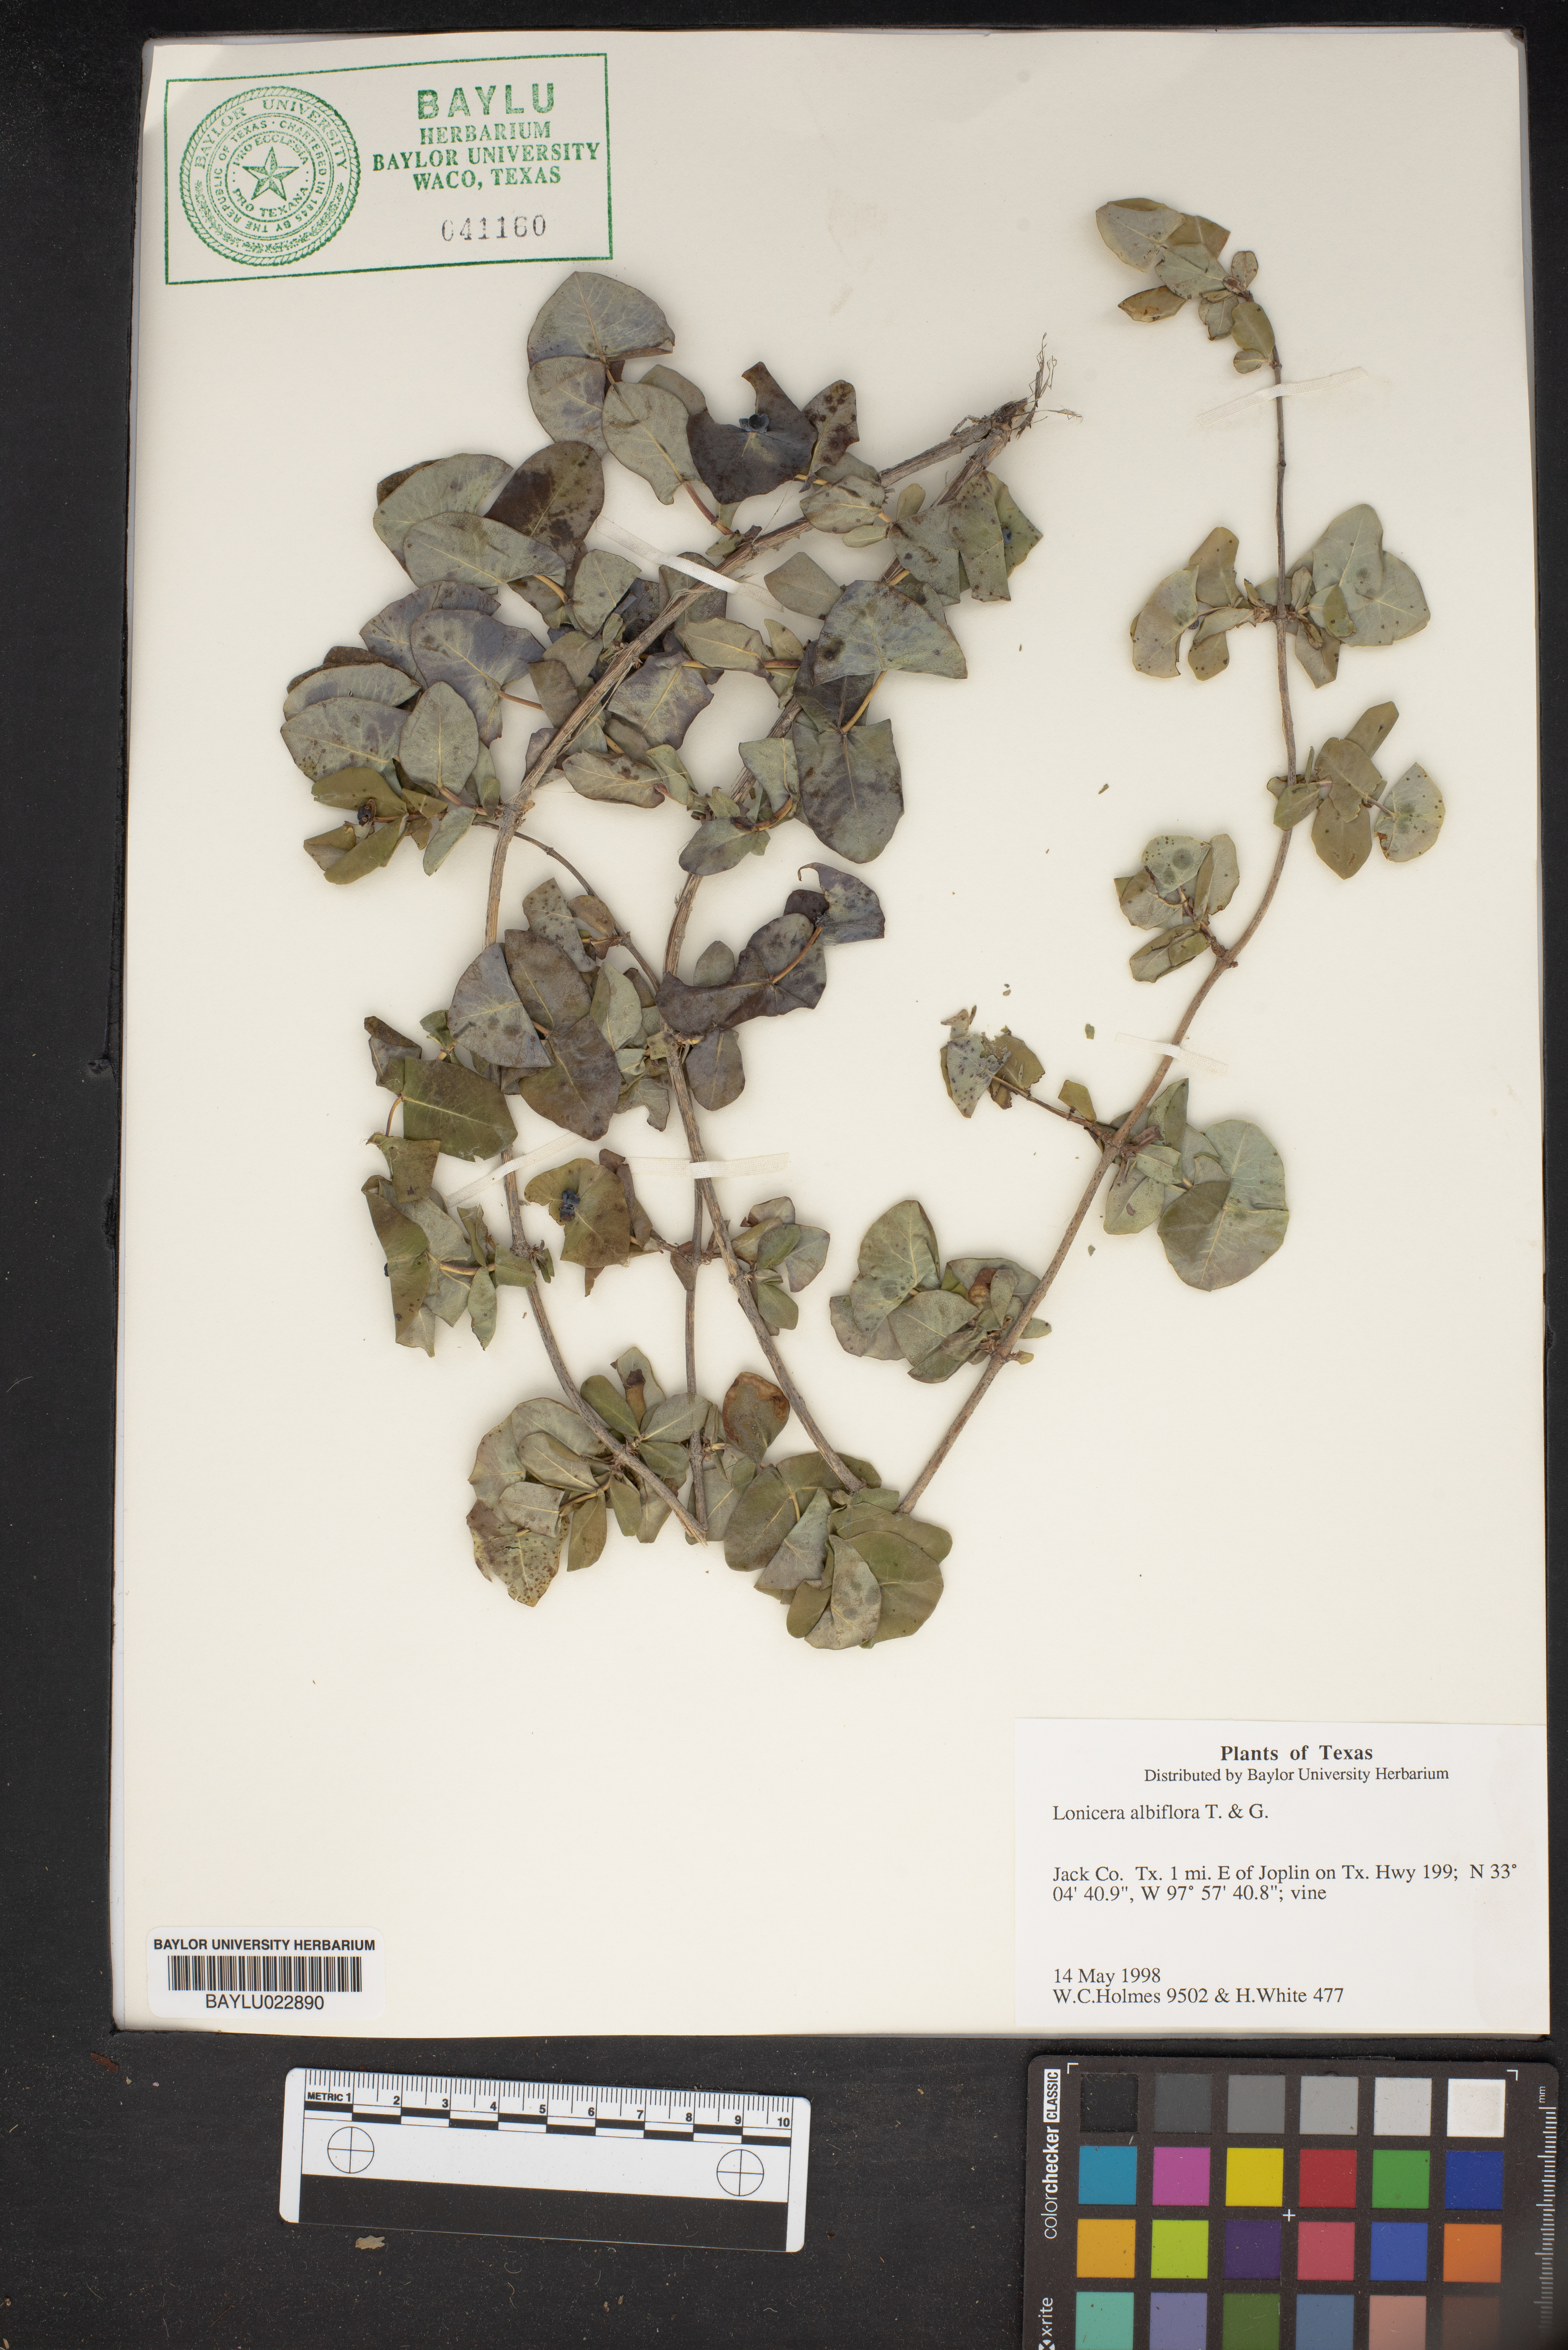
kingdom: Plantae
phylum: Tracheophyta
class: Magnoliopsida
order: Dipsacales
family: Caprifoliaceae
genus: Lonicera
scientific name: Lonicera albiflora
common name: White honeysuckle
